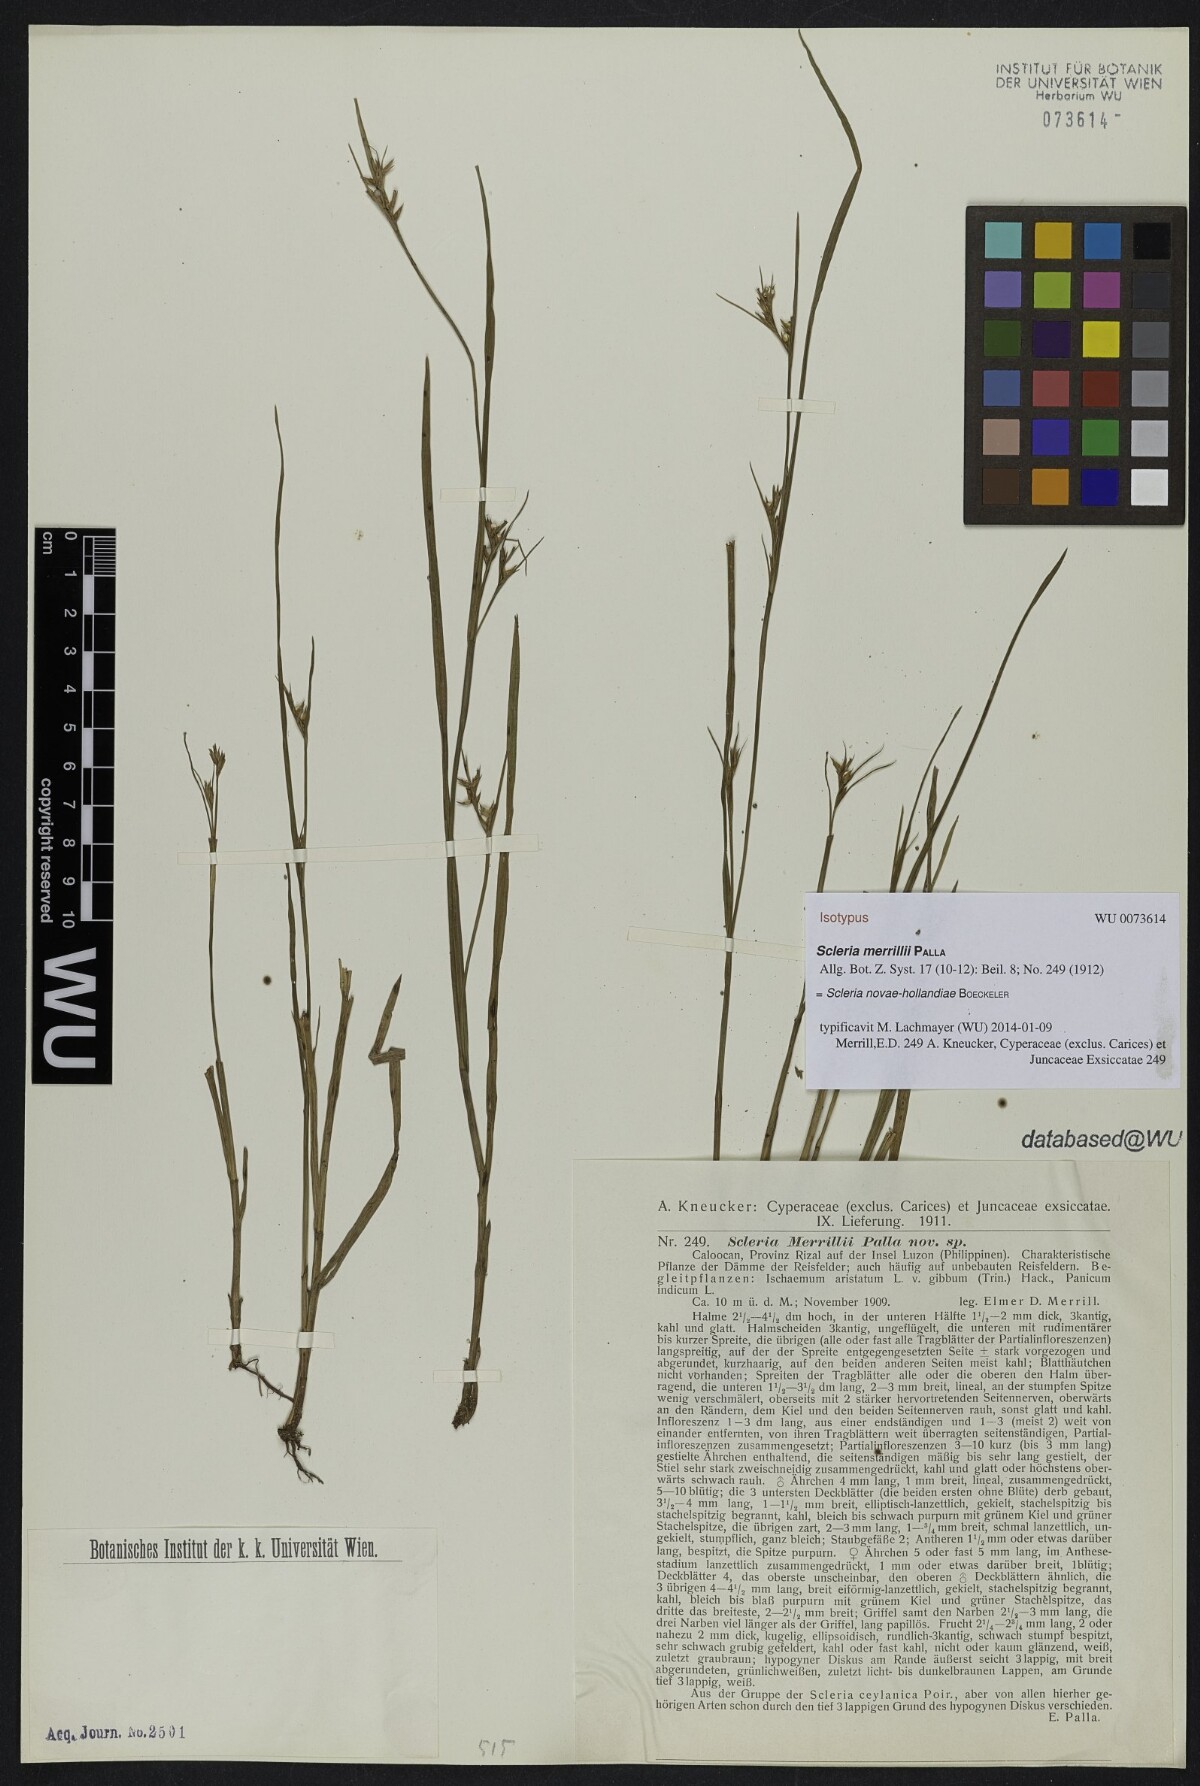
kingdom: Plantae
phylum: Tracheophyta
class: Liliopsida
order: Poales
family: Cyperaceae
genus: Scleria
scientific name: Scleria novae-hollandiae
